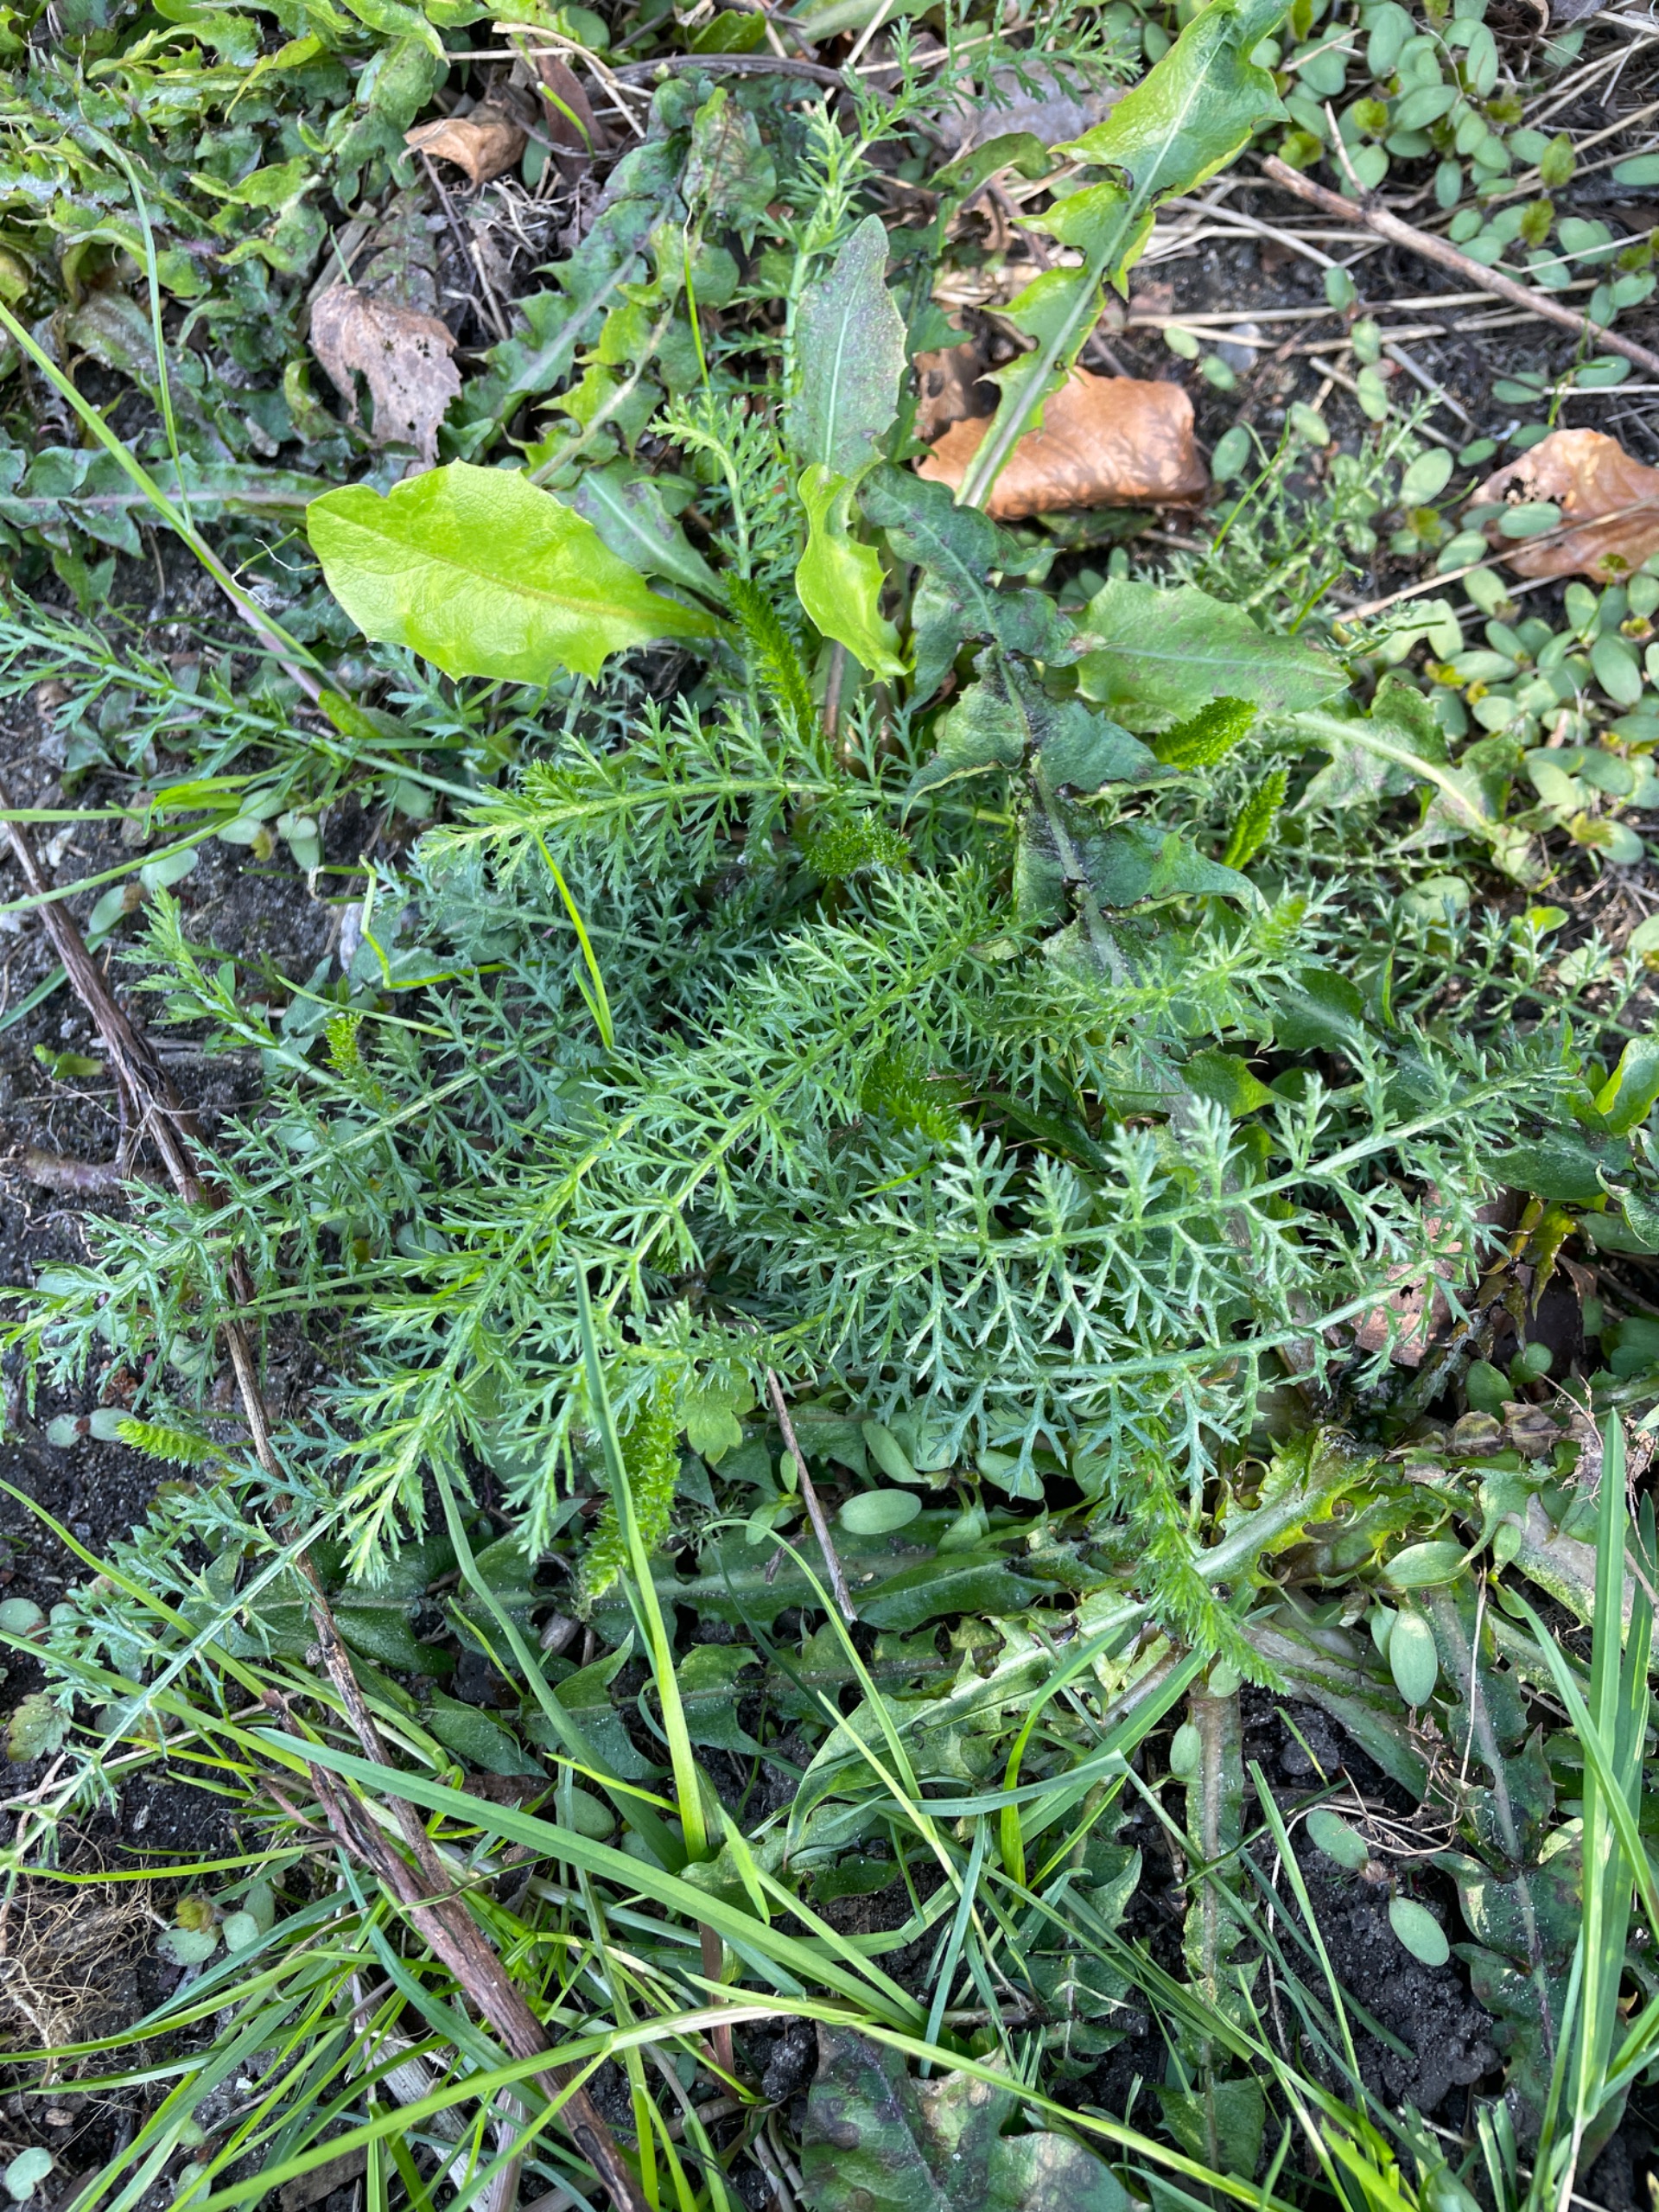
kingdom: Plantae
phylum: Tracheophyta
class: Magnoliopsida
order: Asterales
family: Asteraceae
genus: Achillea
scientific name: Achillea millefolium
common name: Almindelig røllike
